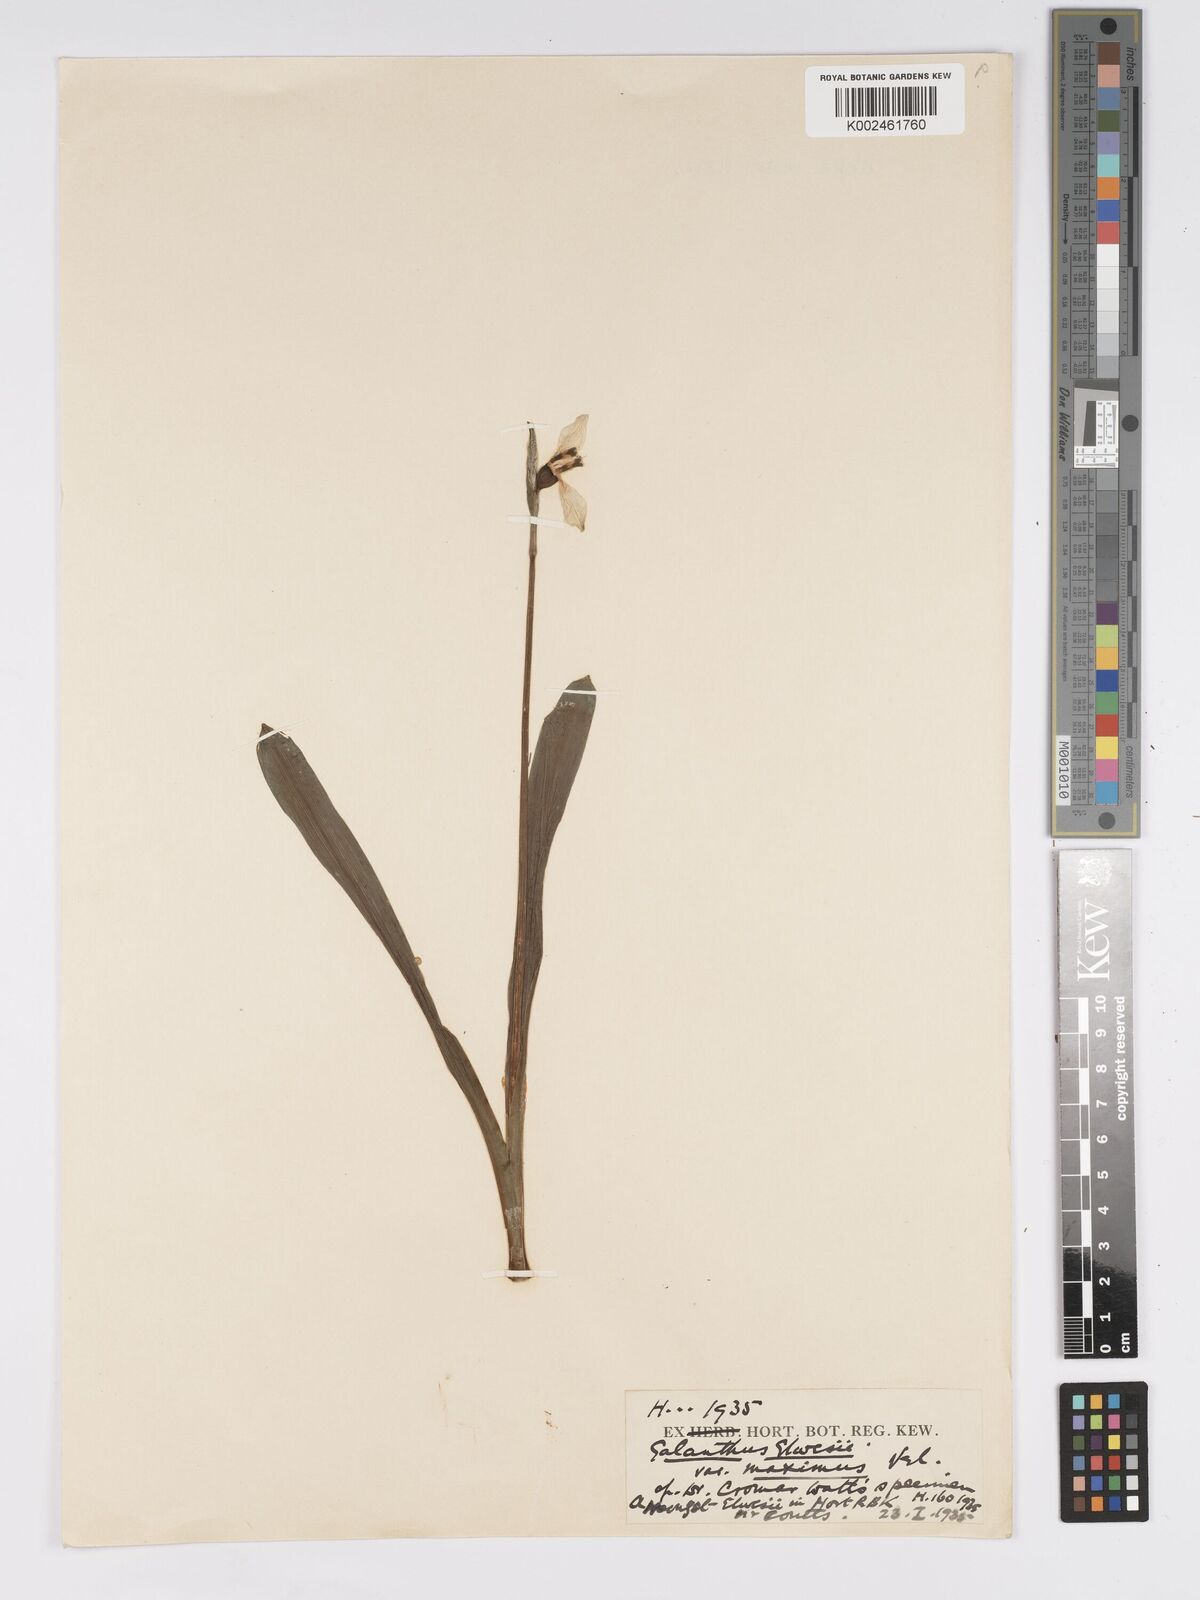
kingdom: Plantae
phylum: Tracheophyta
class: Liliopsida
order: Asparagales
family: Amaryllidaceae
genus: Galanthus
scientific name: Galanthus elwesii
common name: Greater snowdrop
